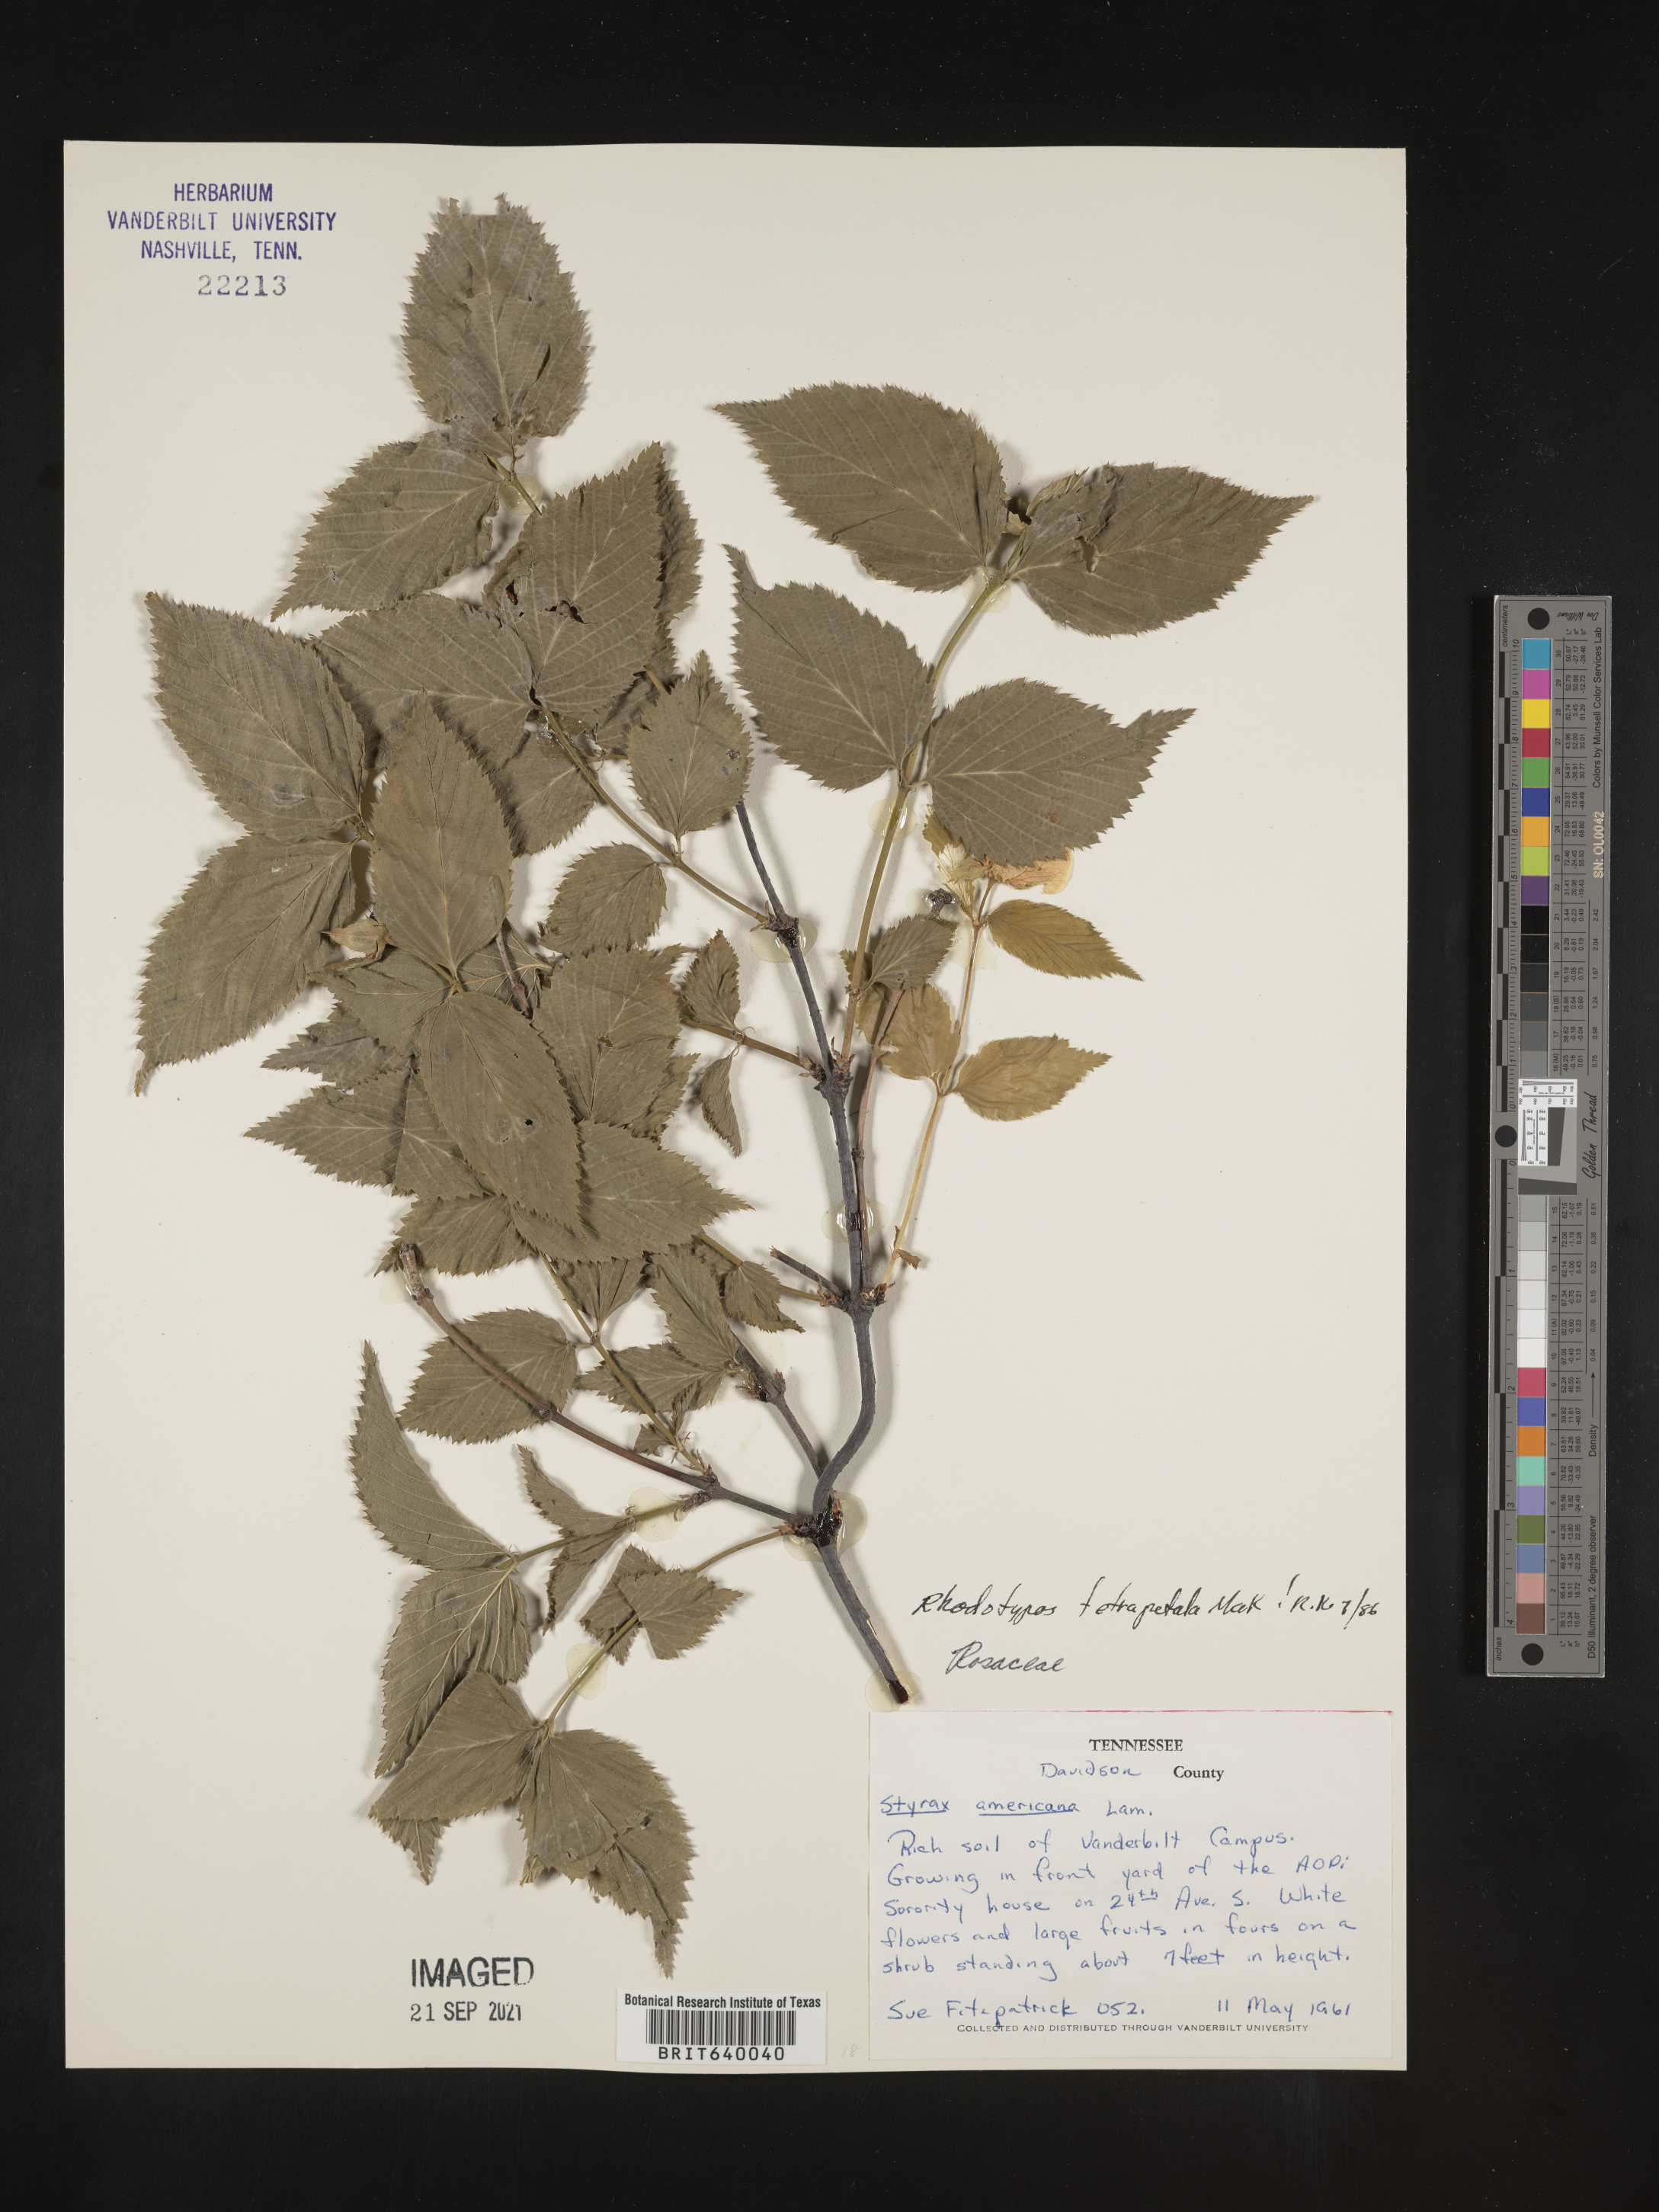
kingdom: Plantae
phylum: Tracheophyta
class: Magnoliopsida
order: Rosales
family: Rosaceae
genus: Rhodotypos
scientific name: Rhodotypos
